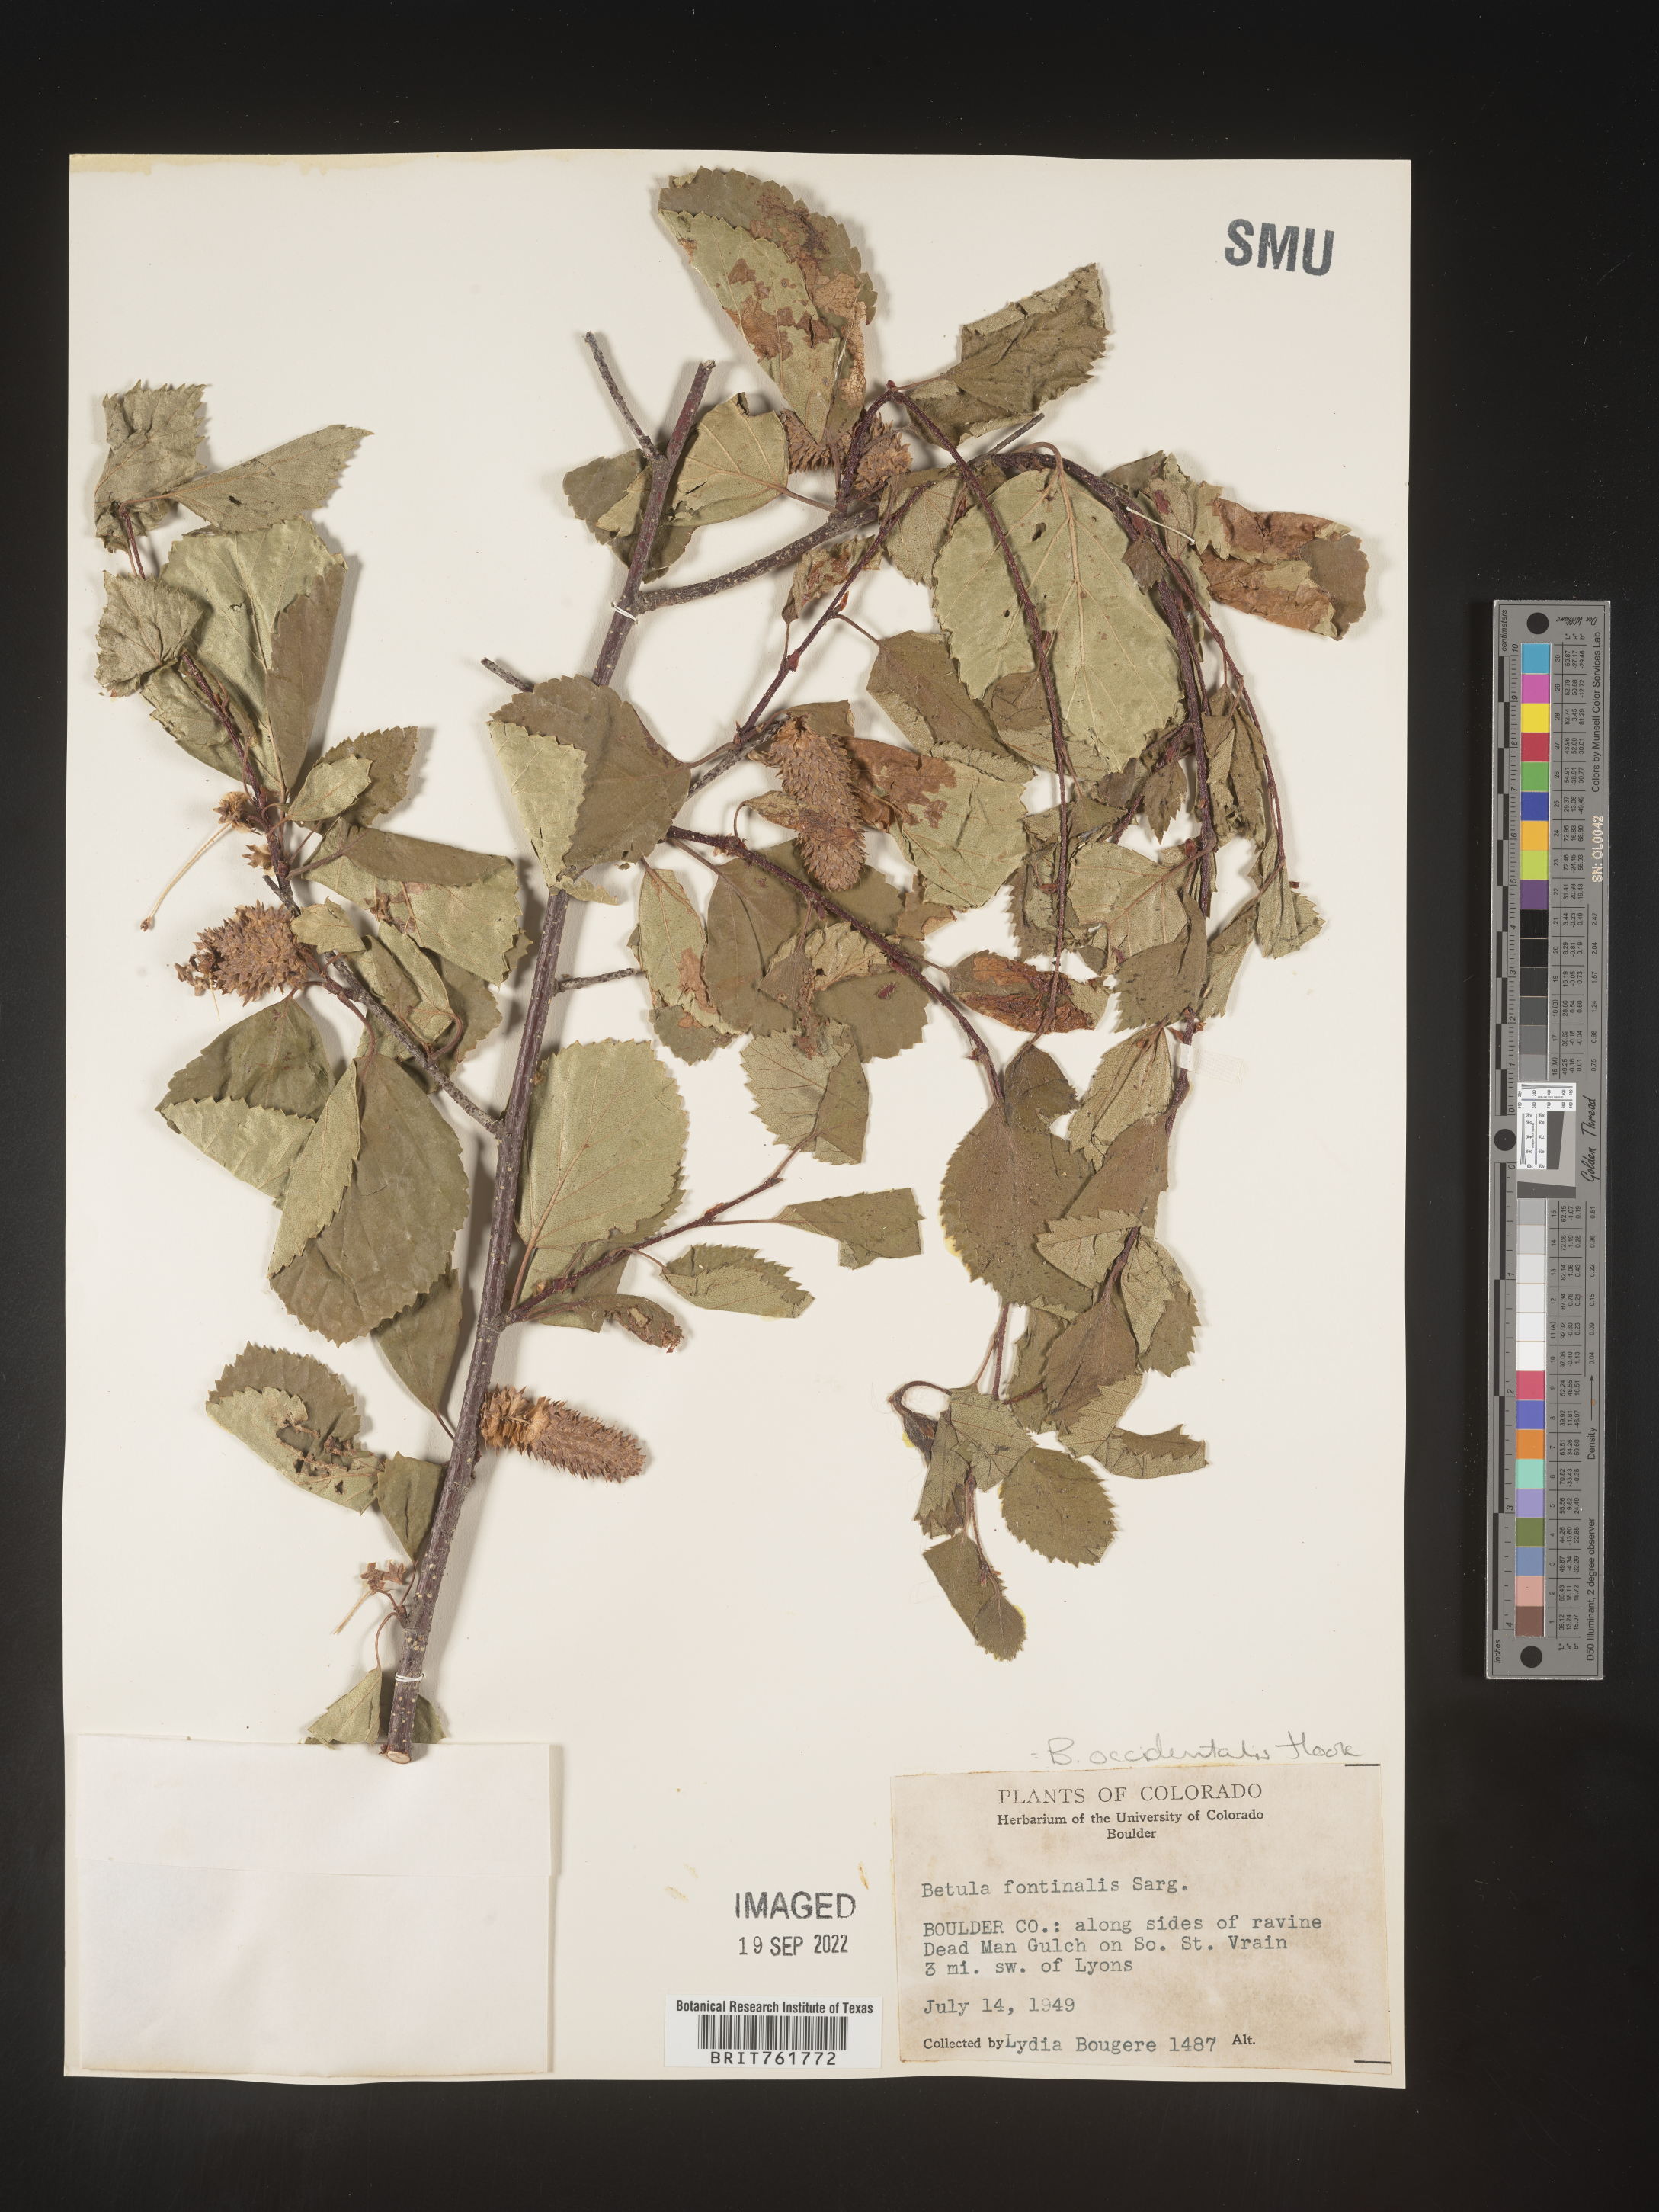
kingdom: Plantae
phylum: Tracheophyta
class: Magnoliopsida
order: Fagales
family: Betulaceae
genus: Betula
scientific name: Betula occidentalis
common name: River birch
